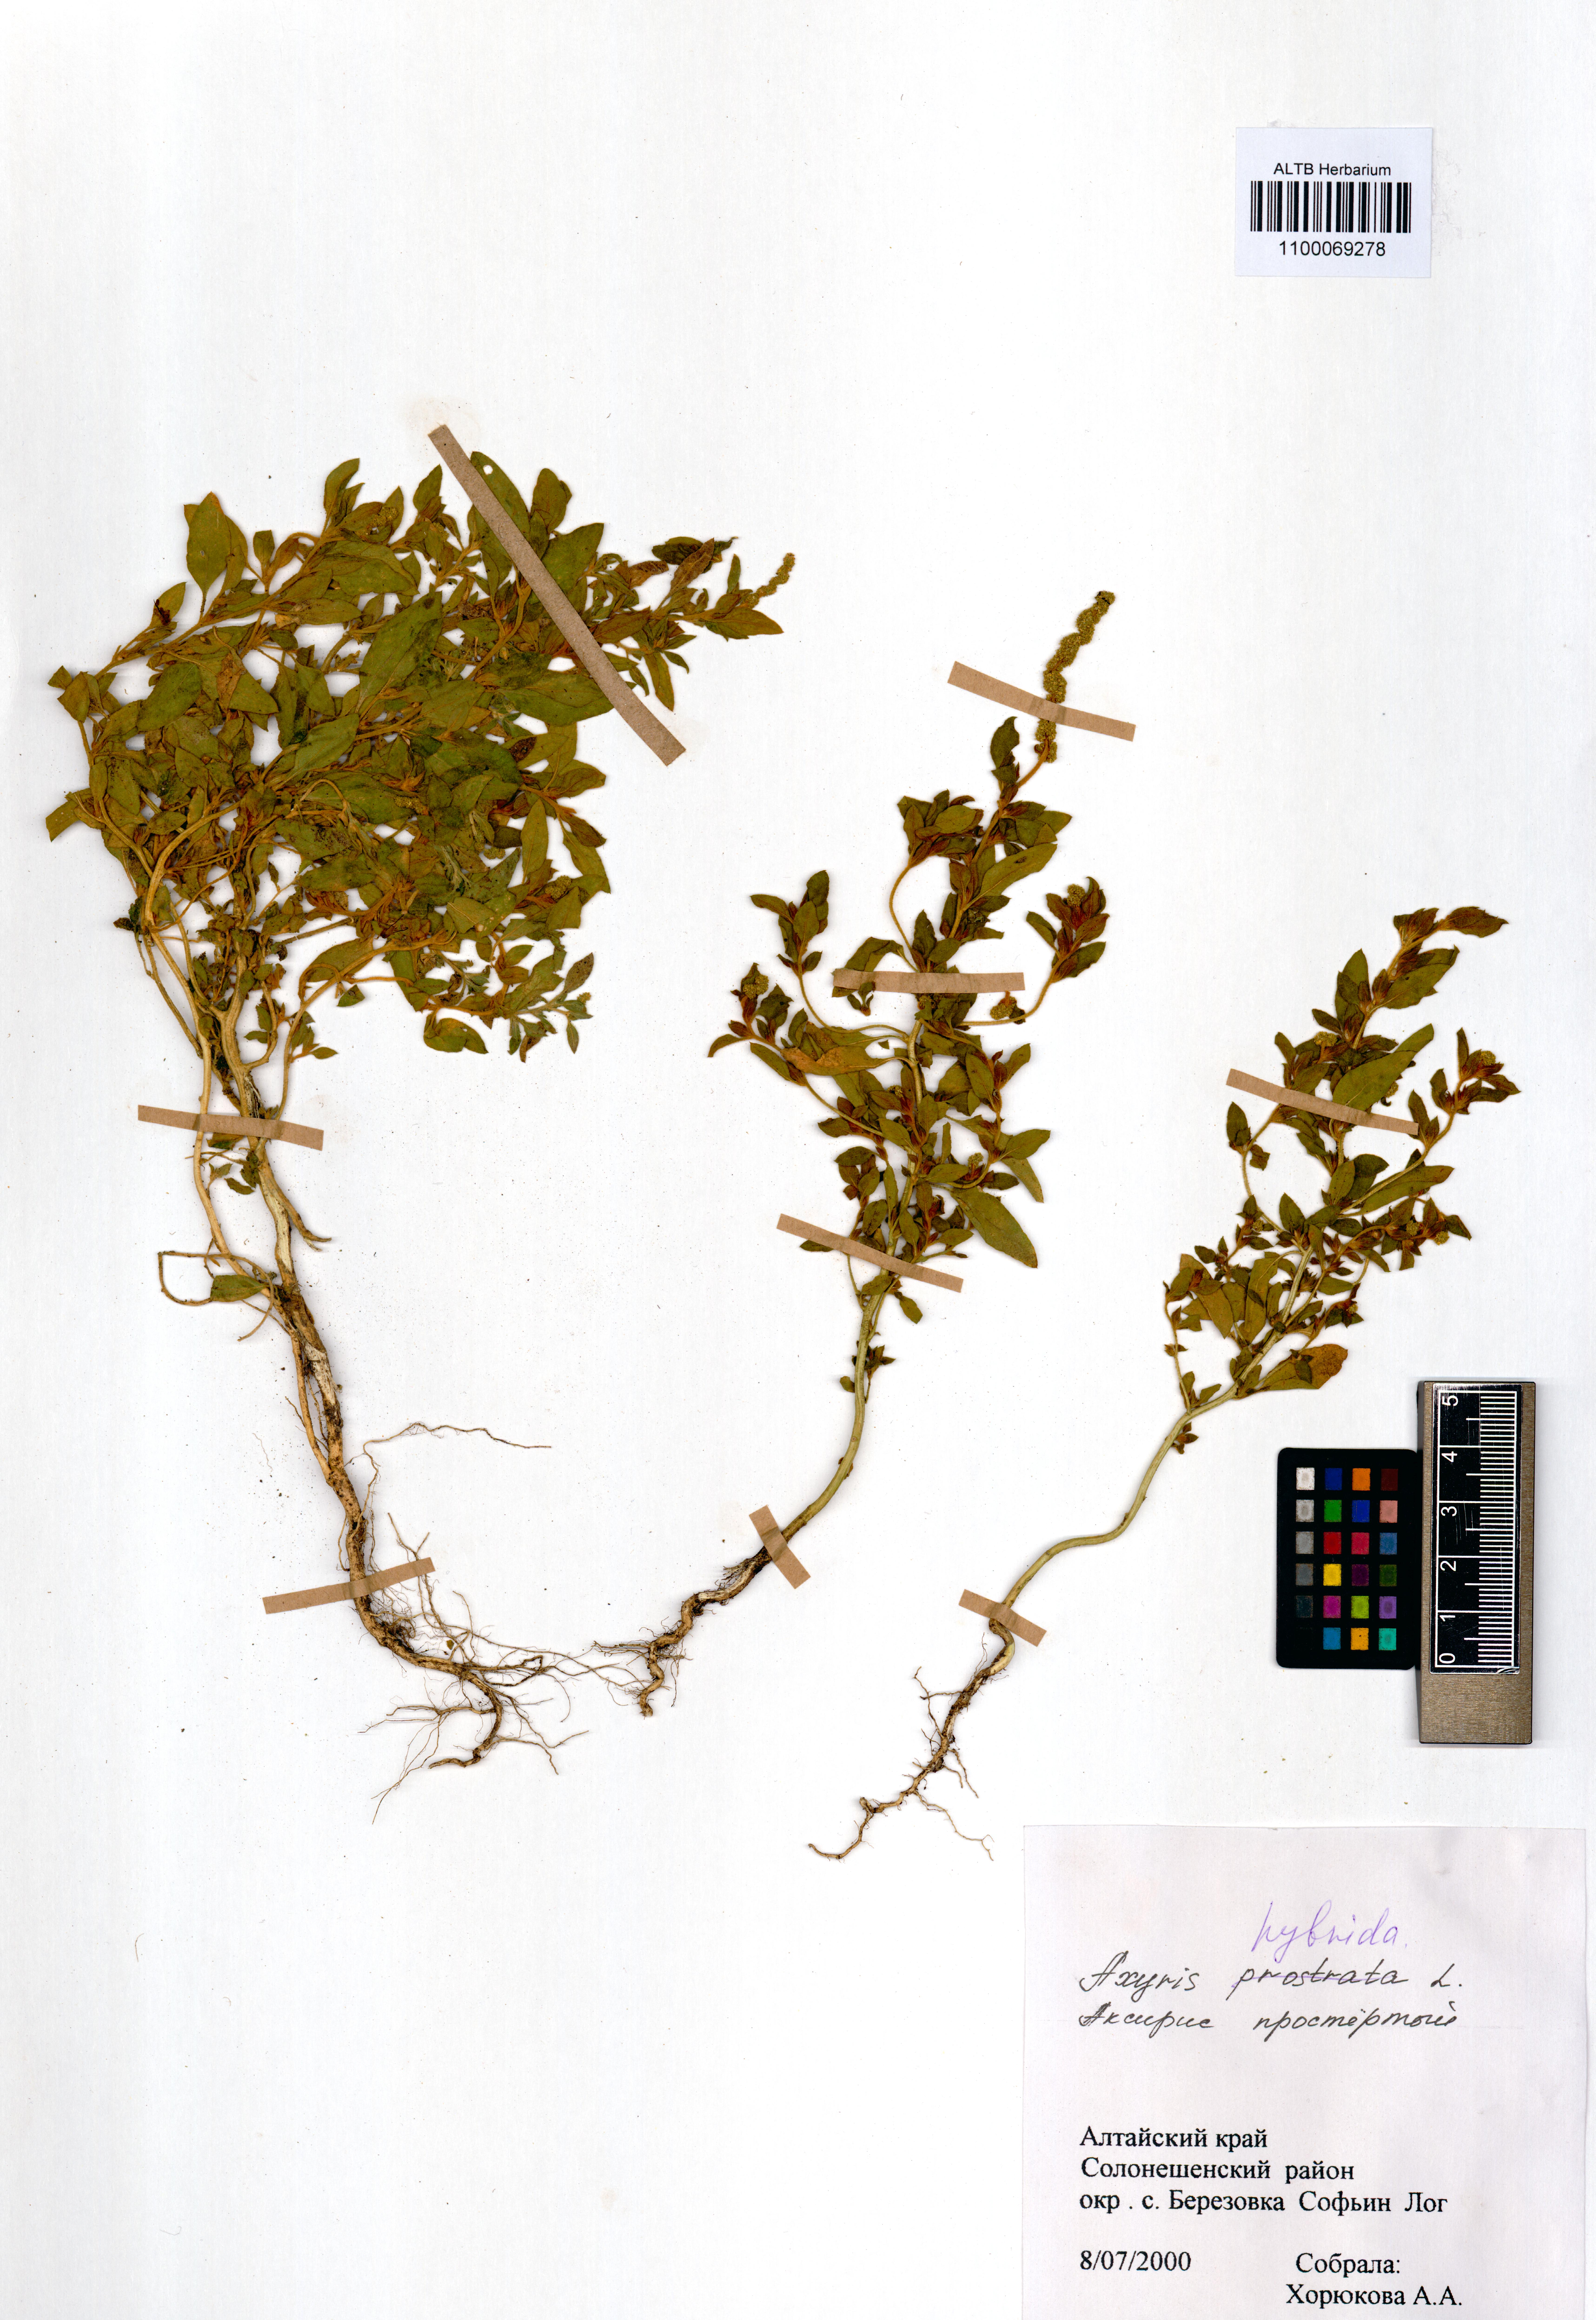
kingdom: Plantae
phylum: Tracheophyta
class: Magnoliopsida
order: Caryophyllales
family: Amaranthaceae
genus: Axyris
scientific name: Axyris hybrida
